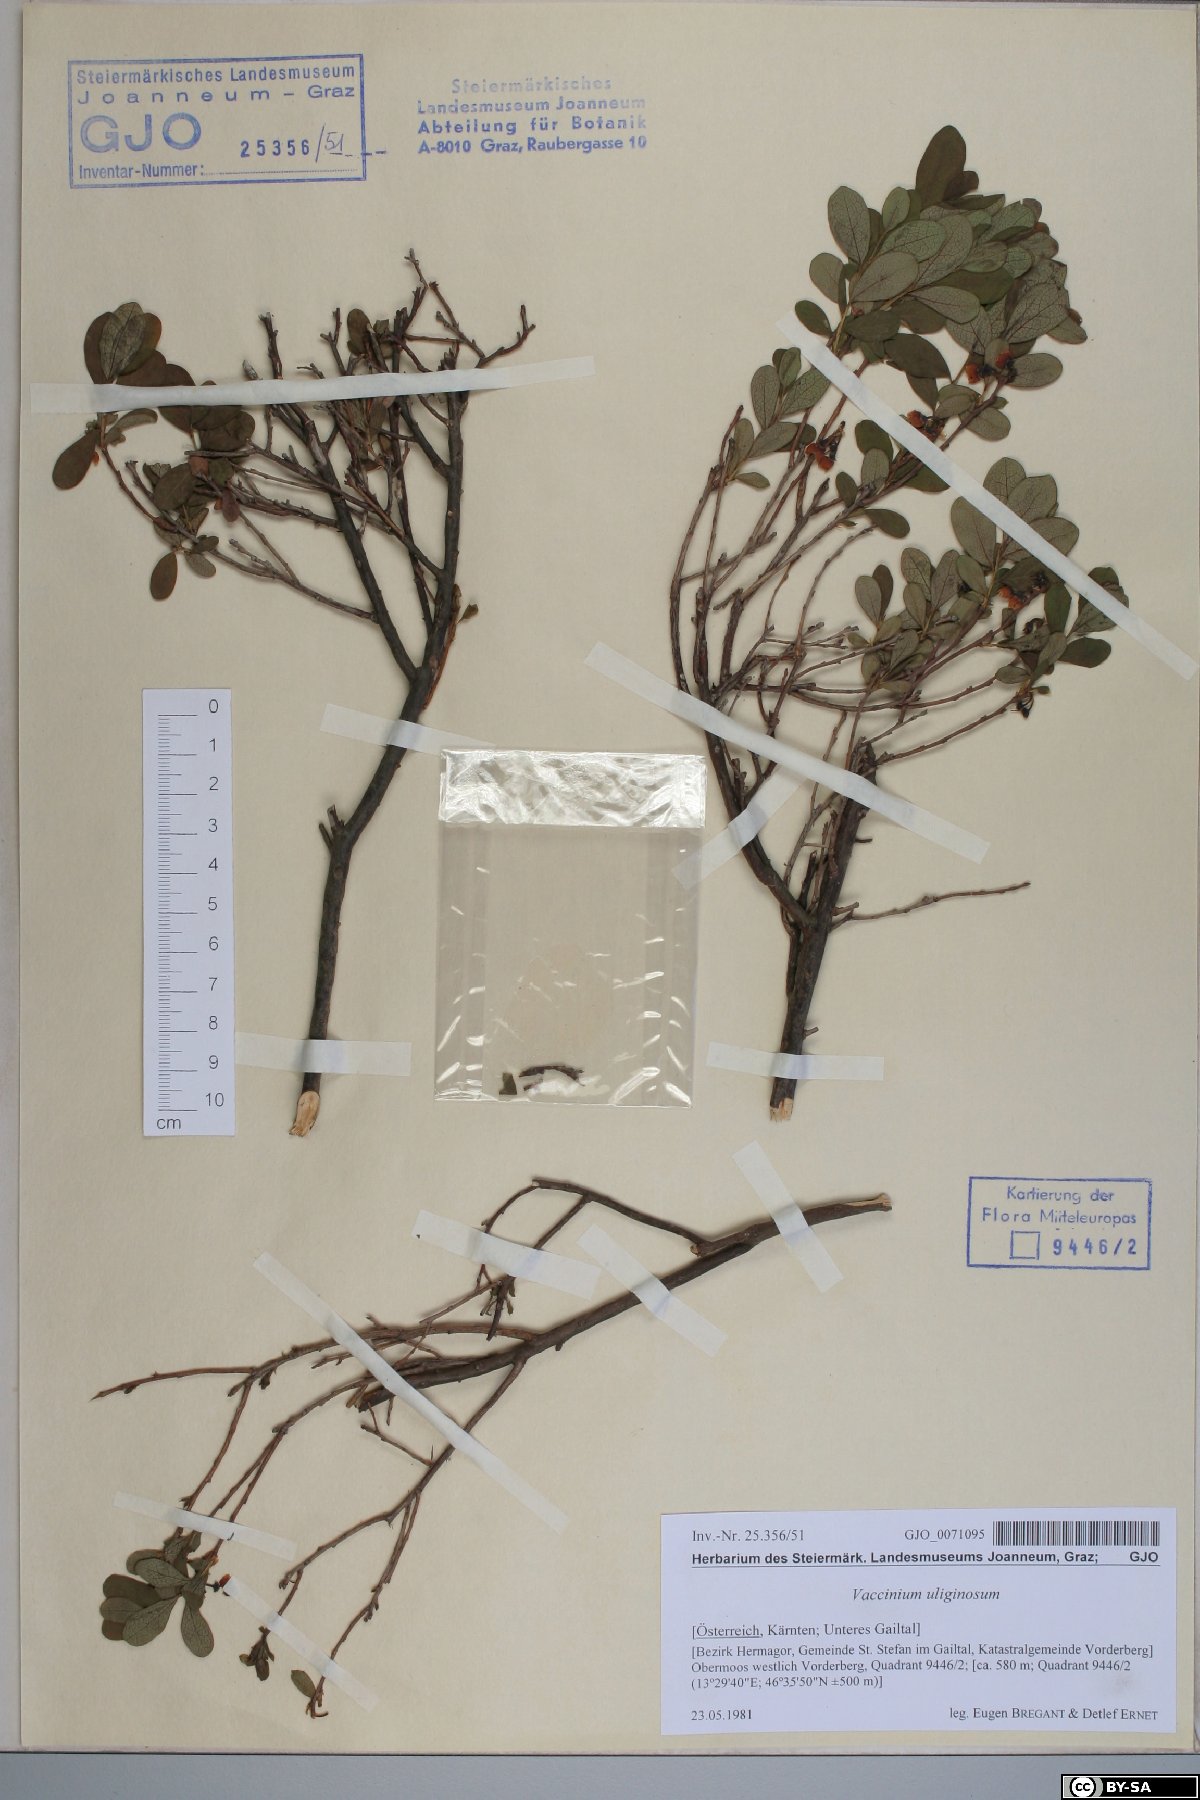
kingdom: Plantae
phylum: Tracheophyta
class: Magnoliopsida
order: Ericales
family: Ericaceae
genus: Vaccinium
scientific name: Vaccinium uliginosum
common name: Bog bilberry
